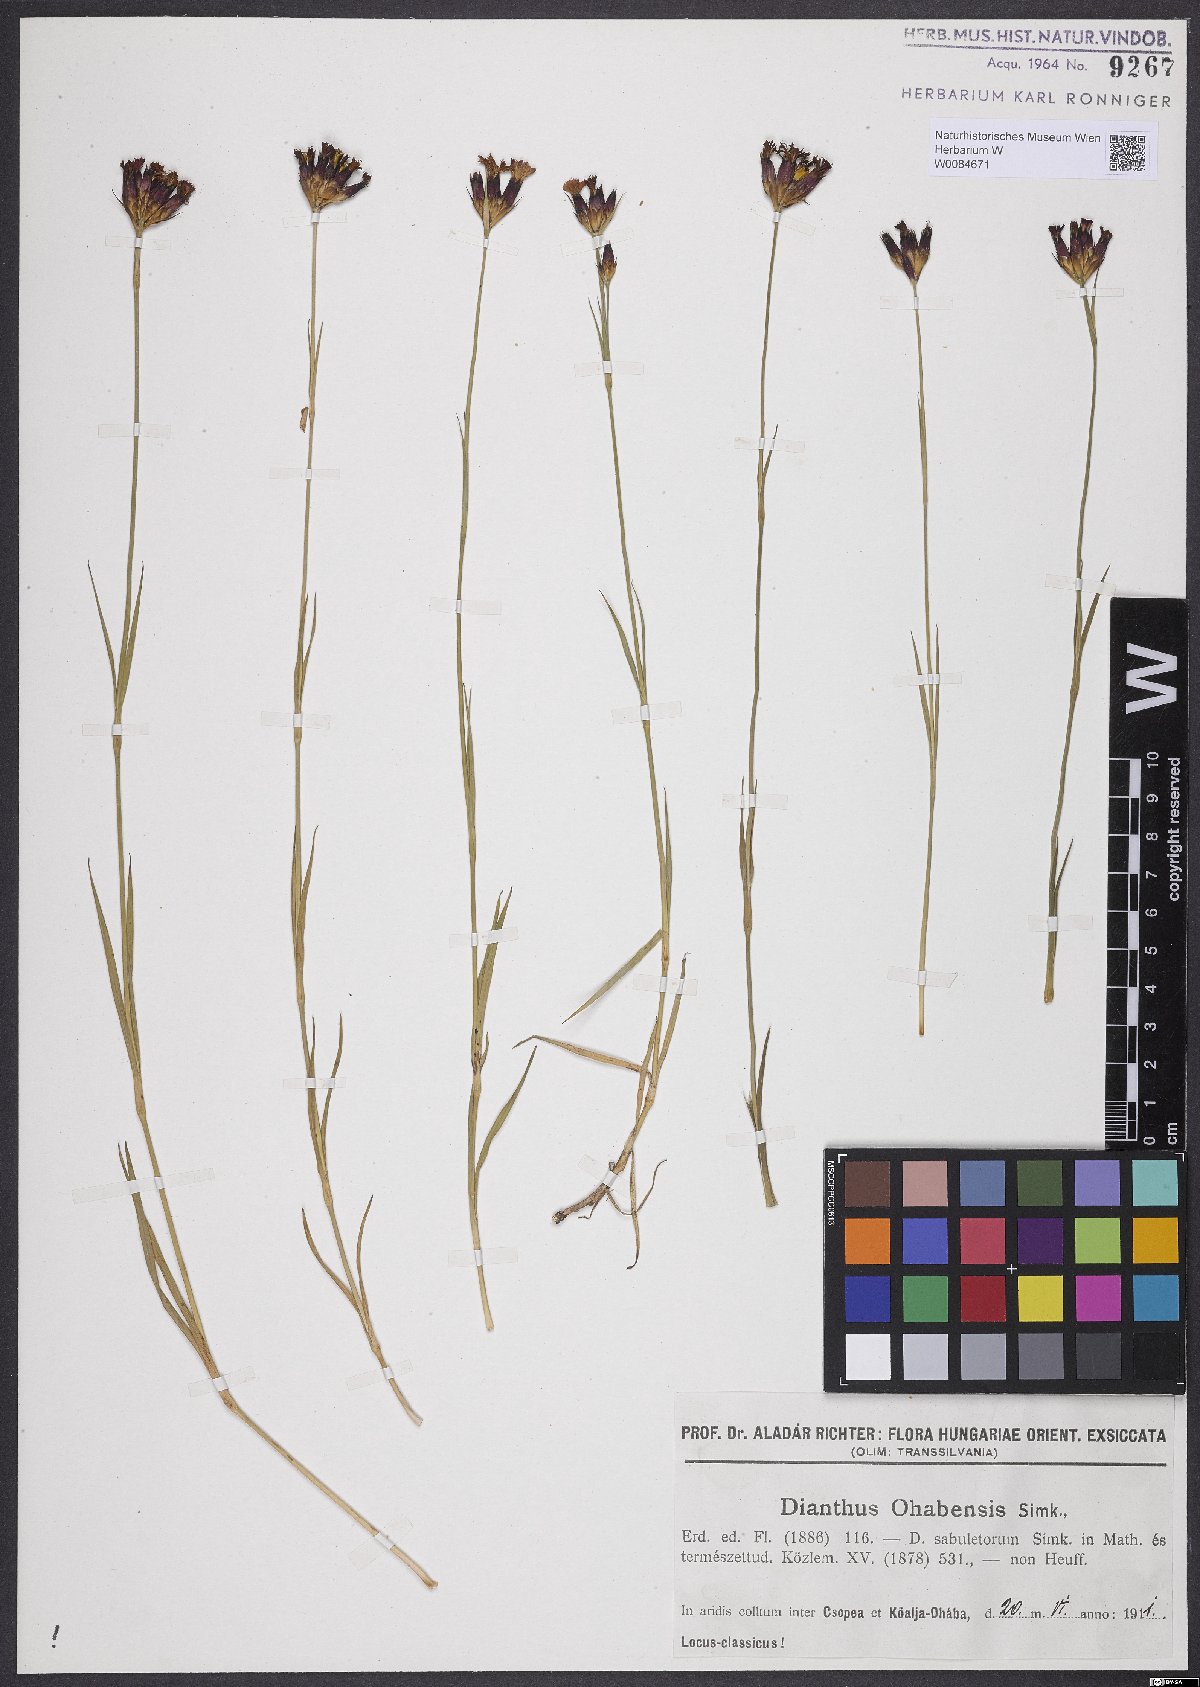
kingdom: Plantae
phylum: Tracheophyta
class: Magnoliopsida
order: Caryophyllales
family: Caryophyllaceae
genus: Dianthus
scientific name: Dianthus
